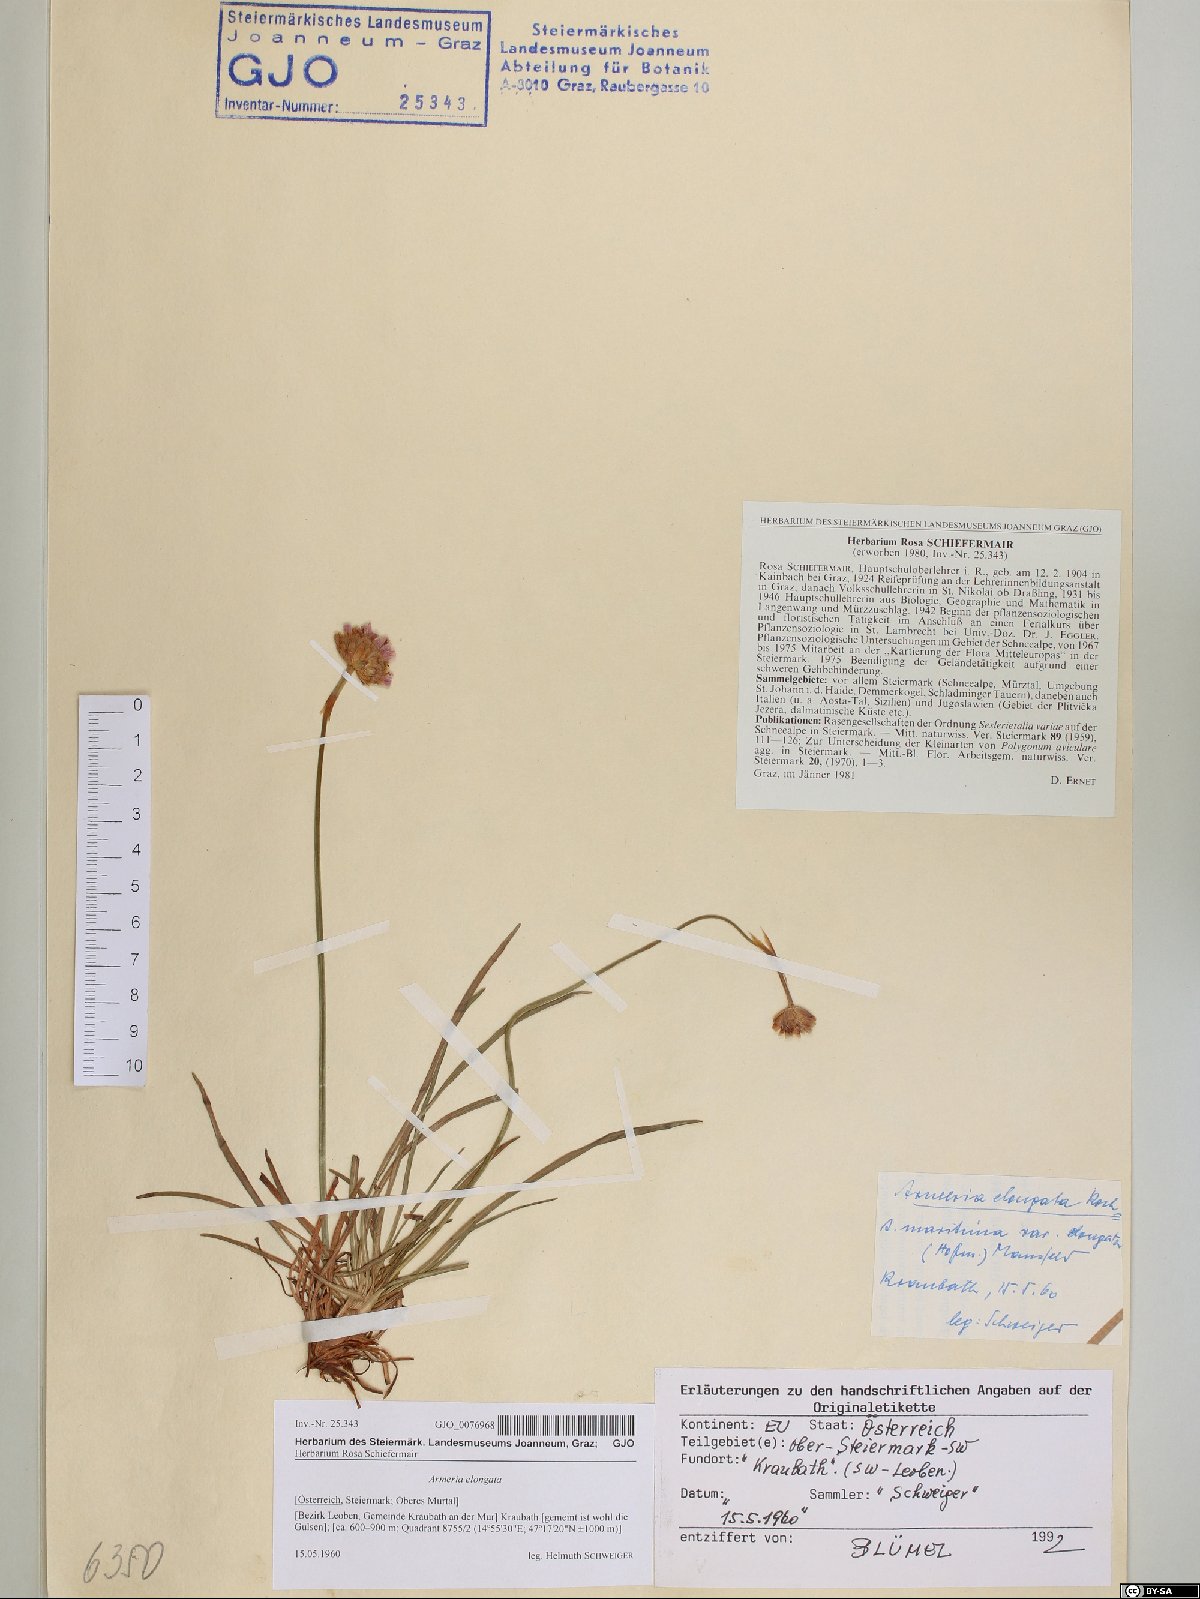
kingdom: Plantae
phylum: Tracheophyta
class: Magnoliopsida
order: Caryophyllales
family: Plumbaginaceae
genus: Armeria
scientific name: Armeria maritima
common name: Thrift
